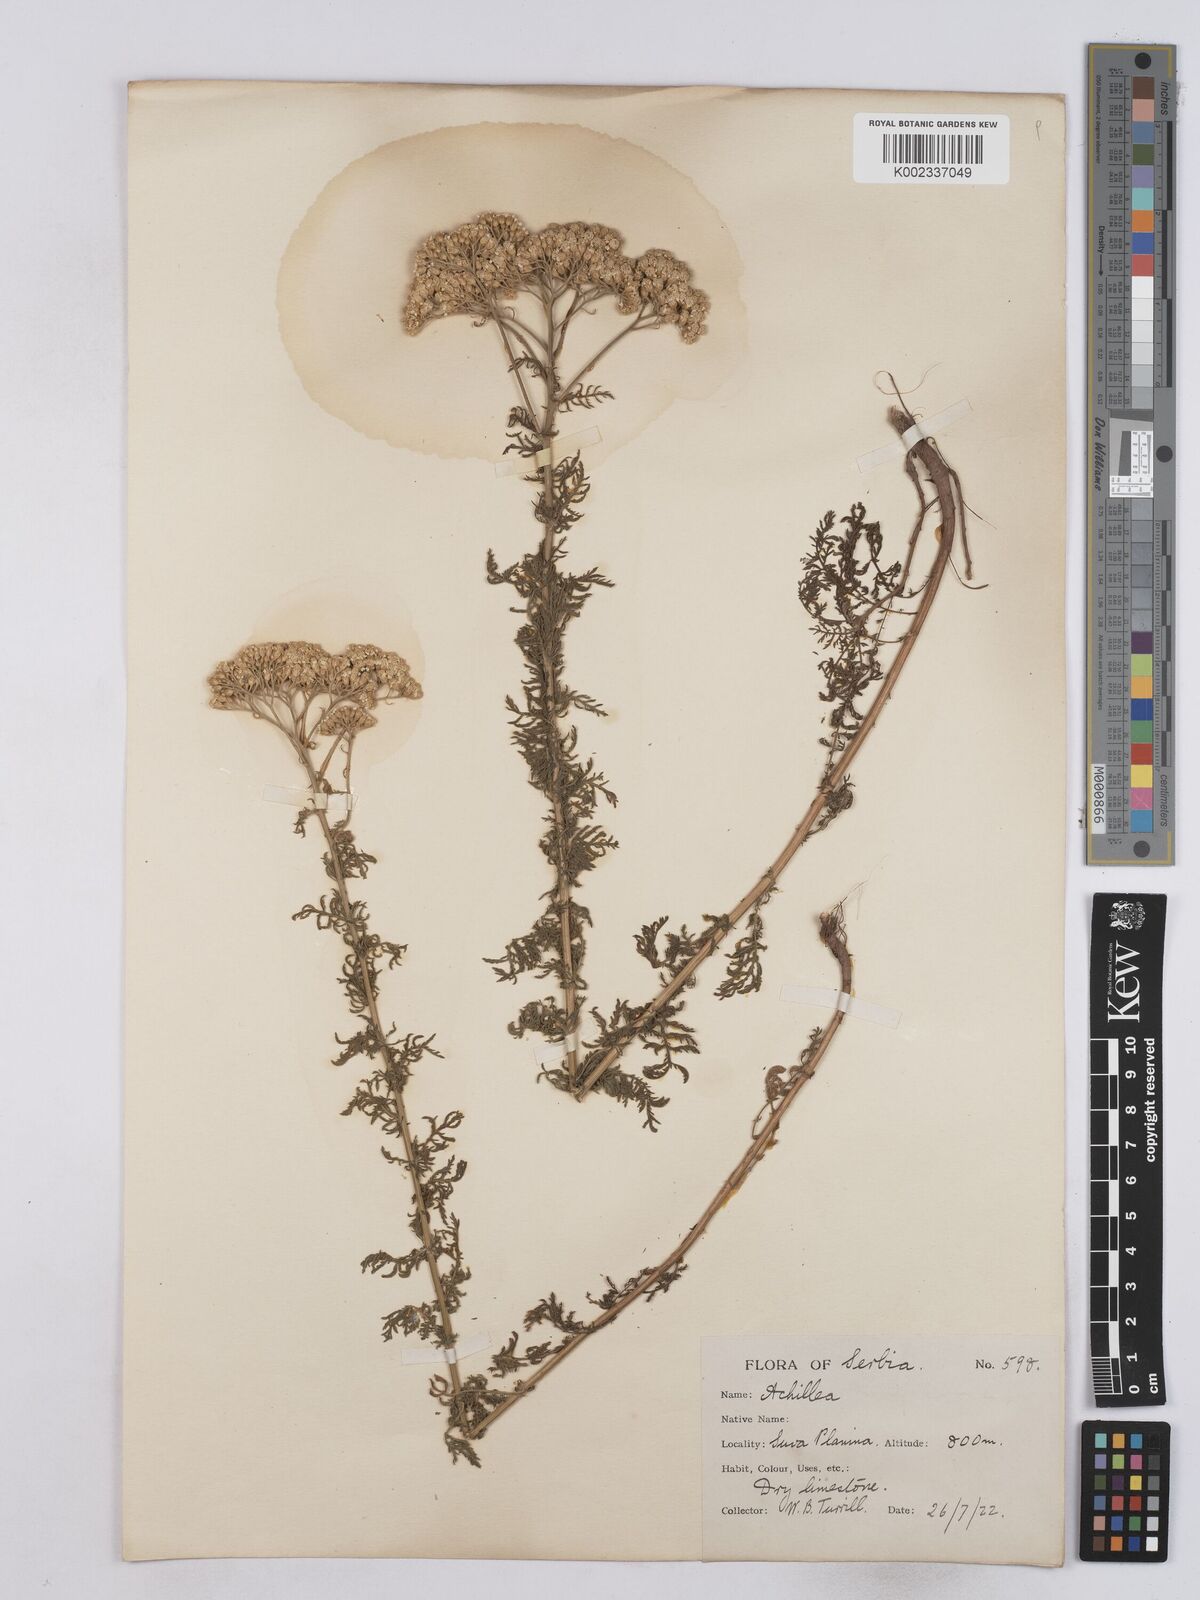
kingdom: Plantae
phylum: Tracheophyta
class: Magnoliopsida
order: Asterales
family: Asteraceae
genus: Achillea
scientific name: Achillea nobilis
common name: Noble yarrow
